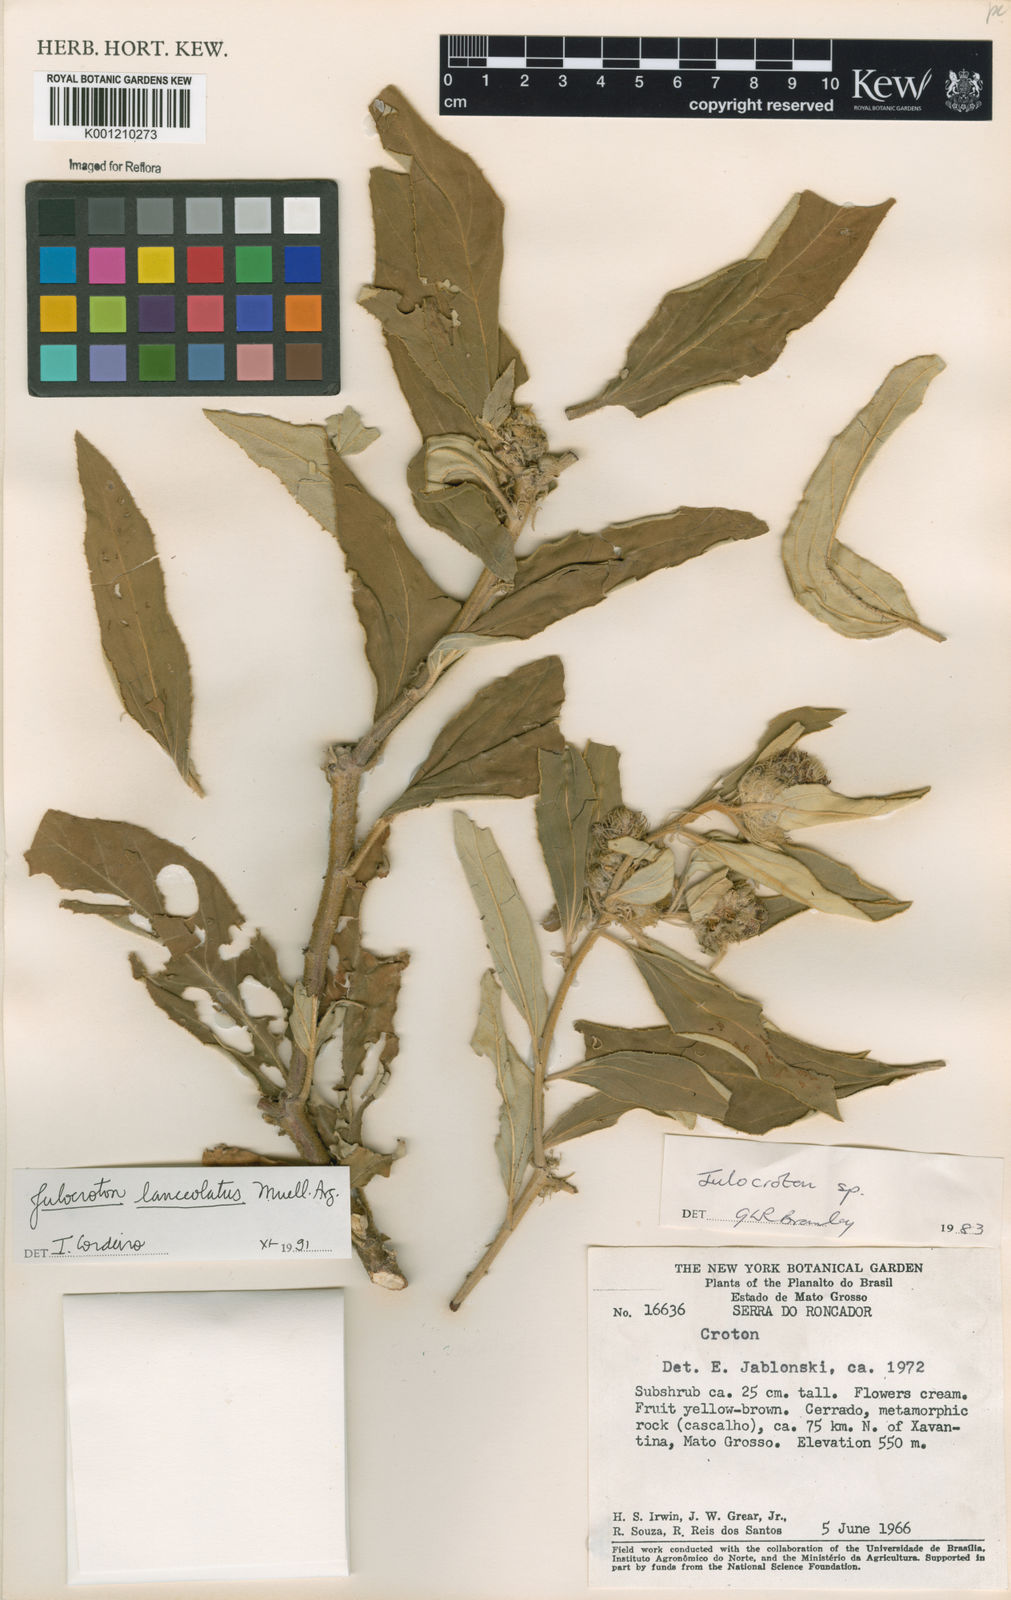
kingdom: Plantae
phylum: Tracheophyta
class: Magnoliopsida
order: Malpighiales
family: Euphorbiaceae
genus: Croton
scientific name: Croton
